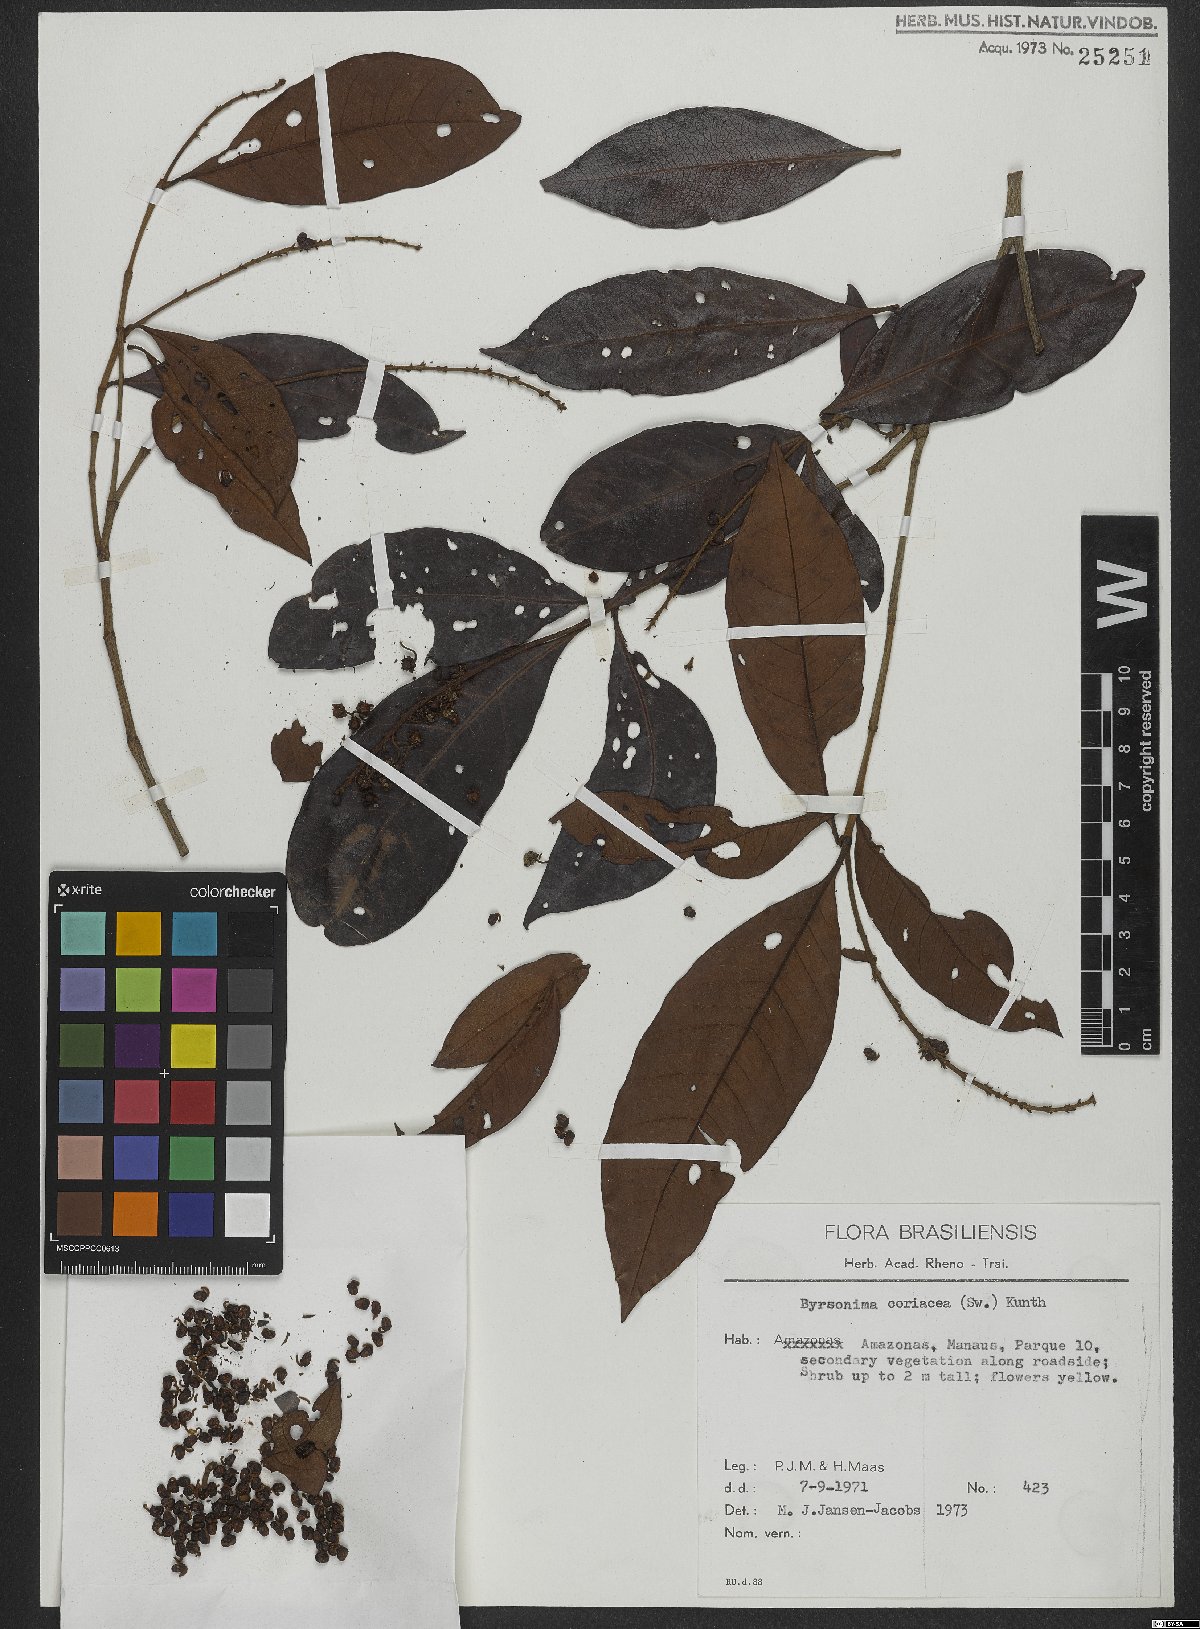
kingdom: Plantae
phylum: Tracheophyta
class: Magnoliopsida
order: Malpighiales
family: Malpighiaceae
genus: Byrsonima
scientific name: Byrsonima crassifolia
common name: Golden spoon
